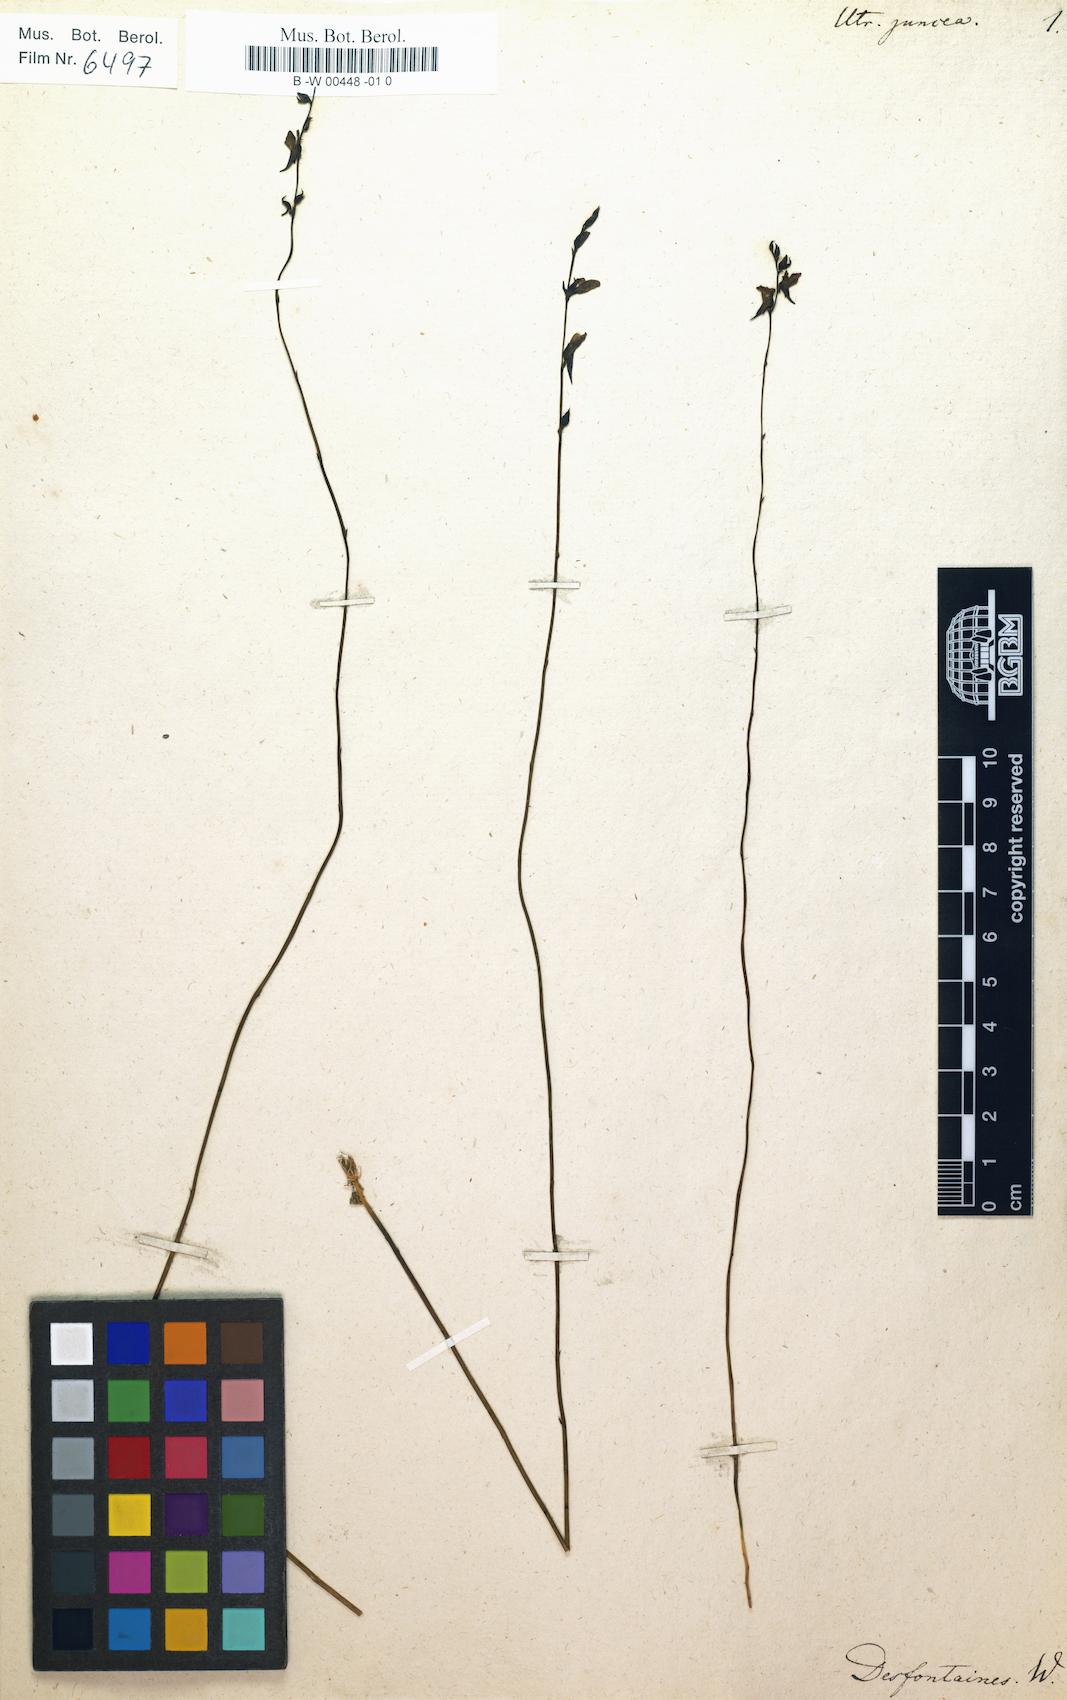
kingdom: Plantae
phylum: Tracheophyta
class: Magnoliopsida
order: Lamiales
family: Lentibulariaceae
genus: Utricularia
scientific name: Utricularia juncea
